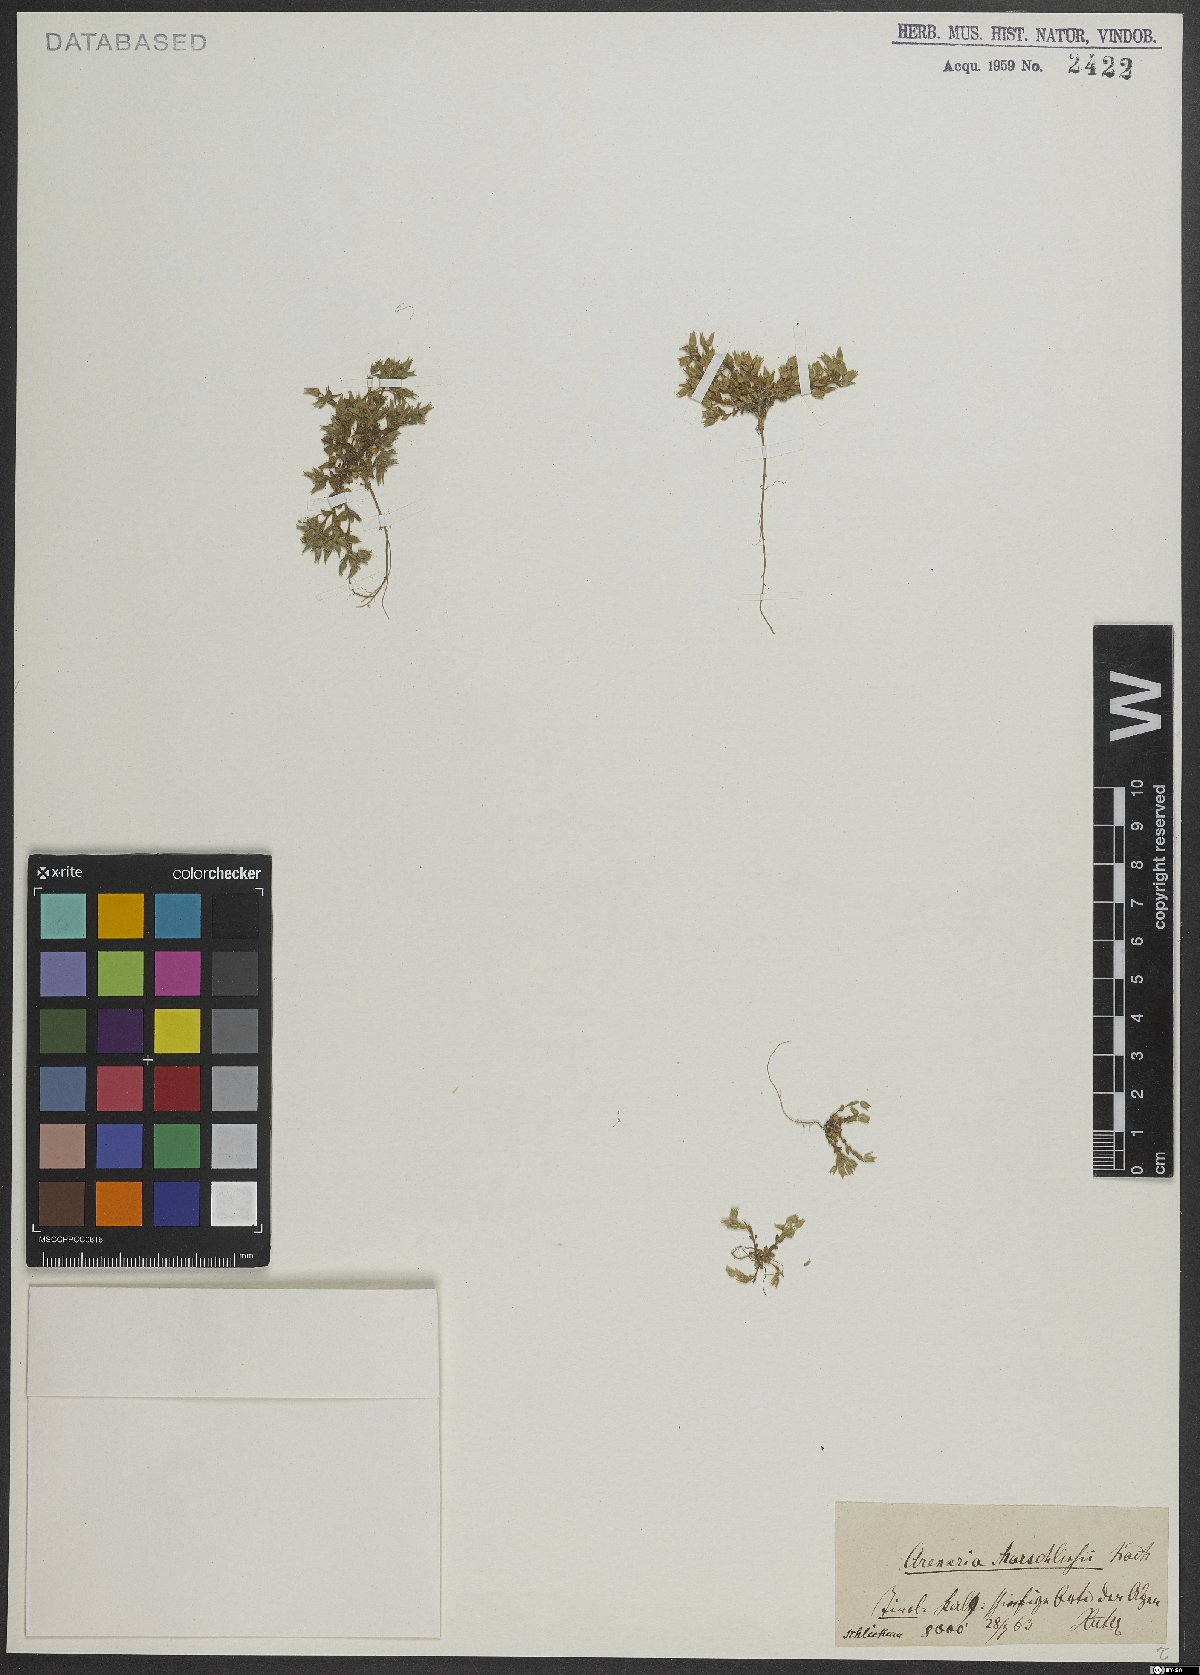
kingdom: Plantae
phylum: Tracheophyta
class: Magnoliopsida
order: Caryophyllales
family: Caryophyllaceae
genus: Arenaria
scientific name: Arenaria marschlinsii
